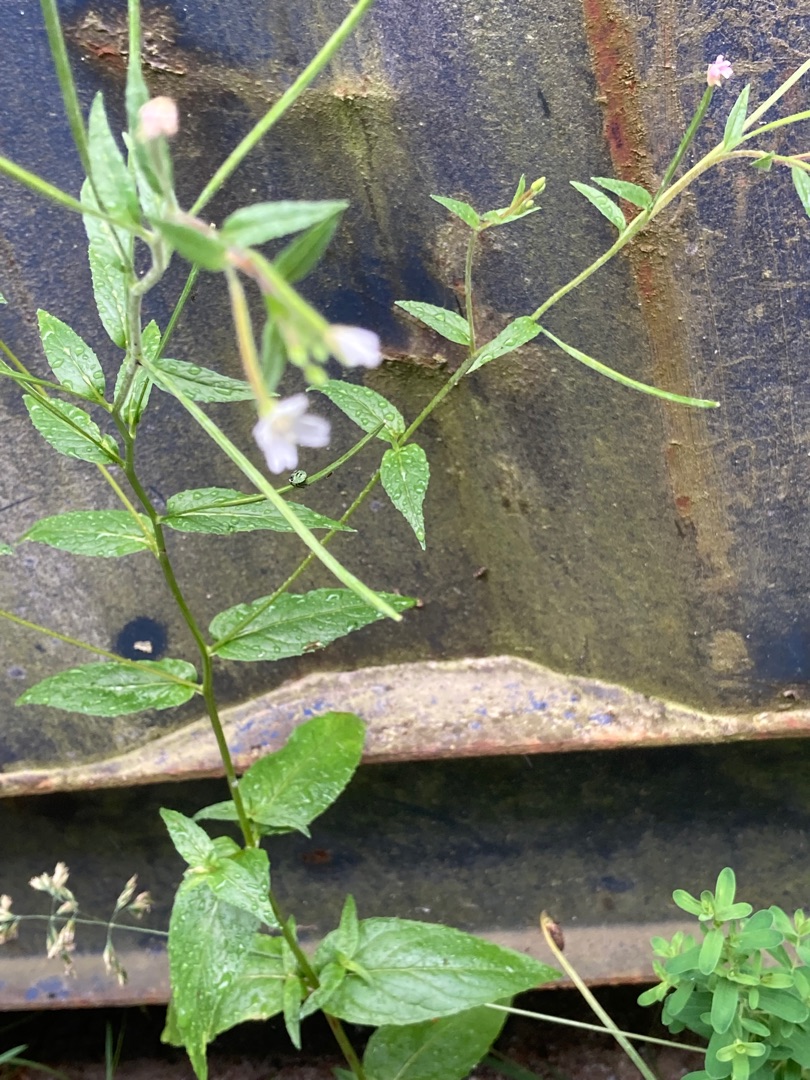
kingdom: Plantae
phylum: Tracheophyta
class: Magnoliopsida
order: Myrtales
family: Onagraceae
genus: Epilobium
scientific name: Epilobium ciliatum
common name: Kirtlet dueurt
